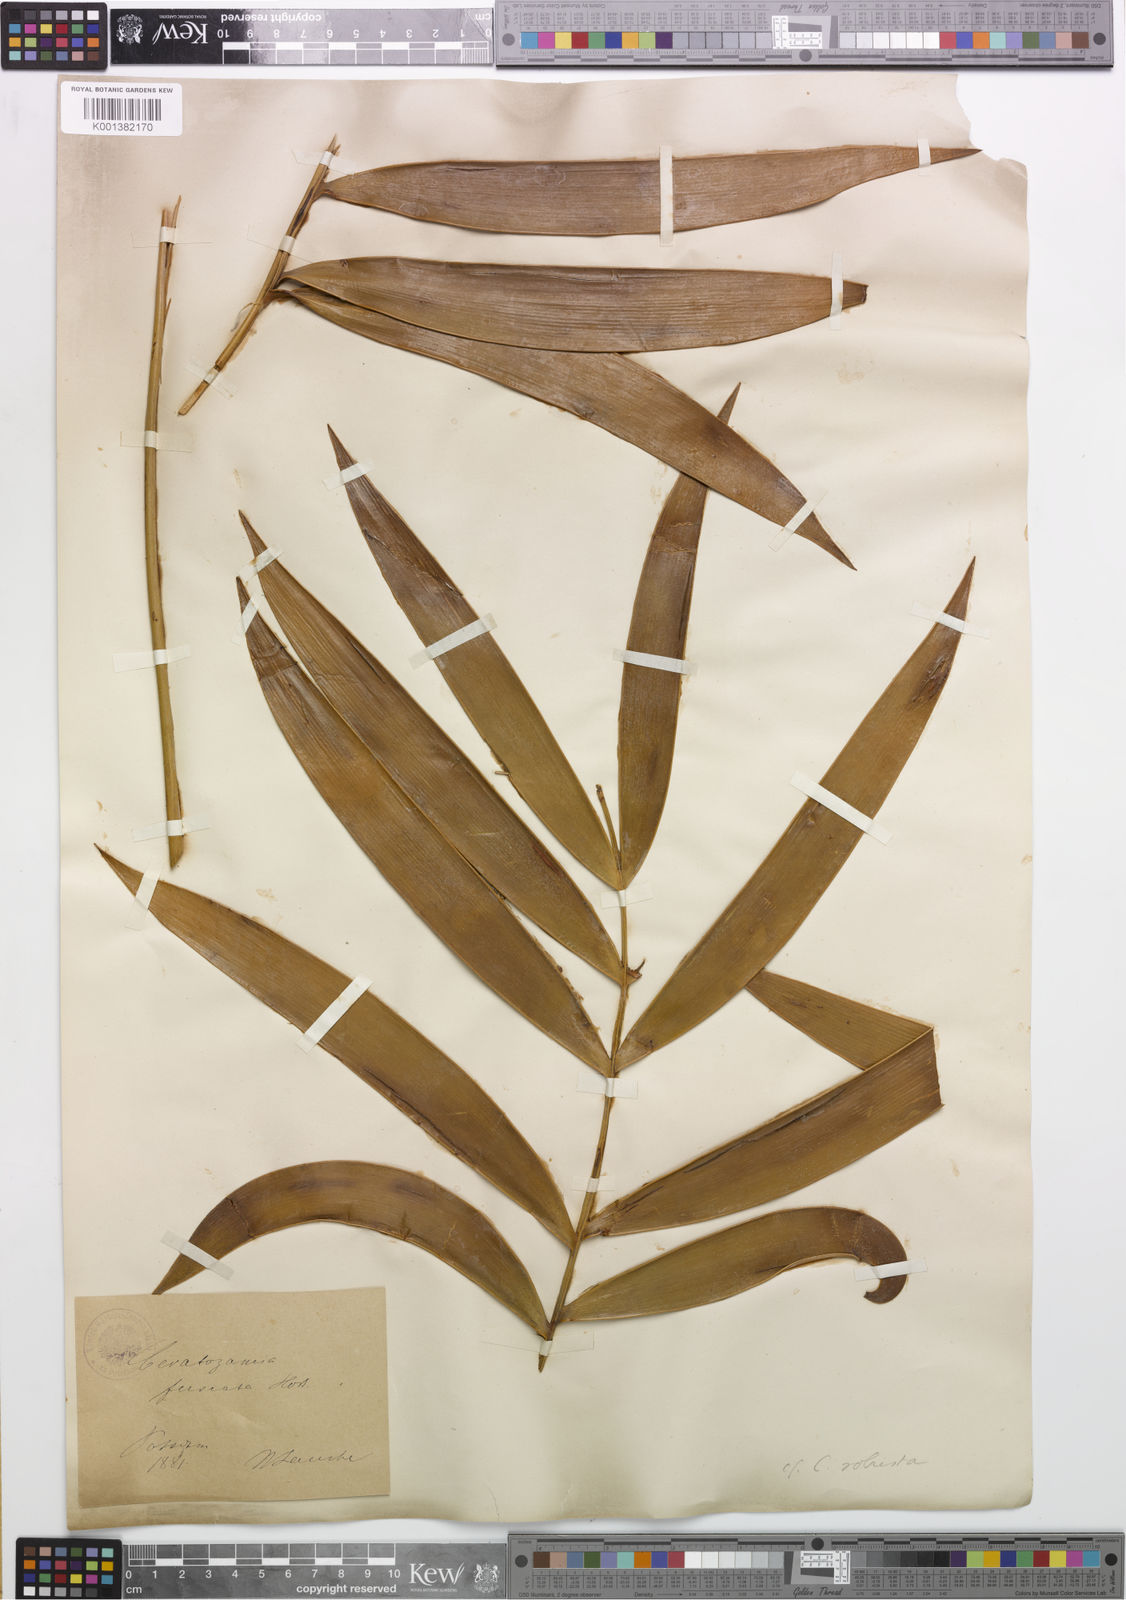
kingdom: Plantae
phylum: Tracheophyta
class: Cycadopsida
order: Cycadales
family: Zamiaceae
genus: Ceratozamia
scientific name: Ceratozamia robusta
